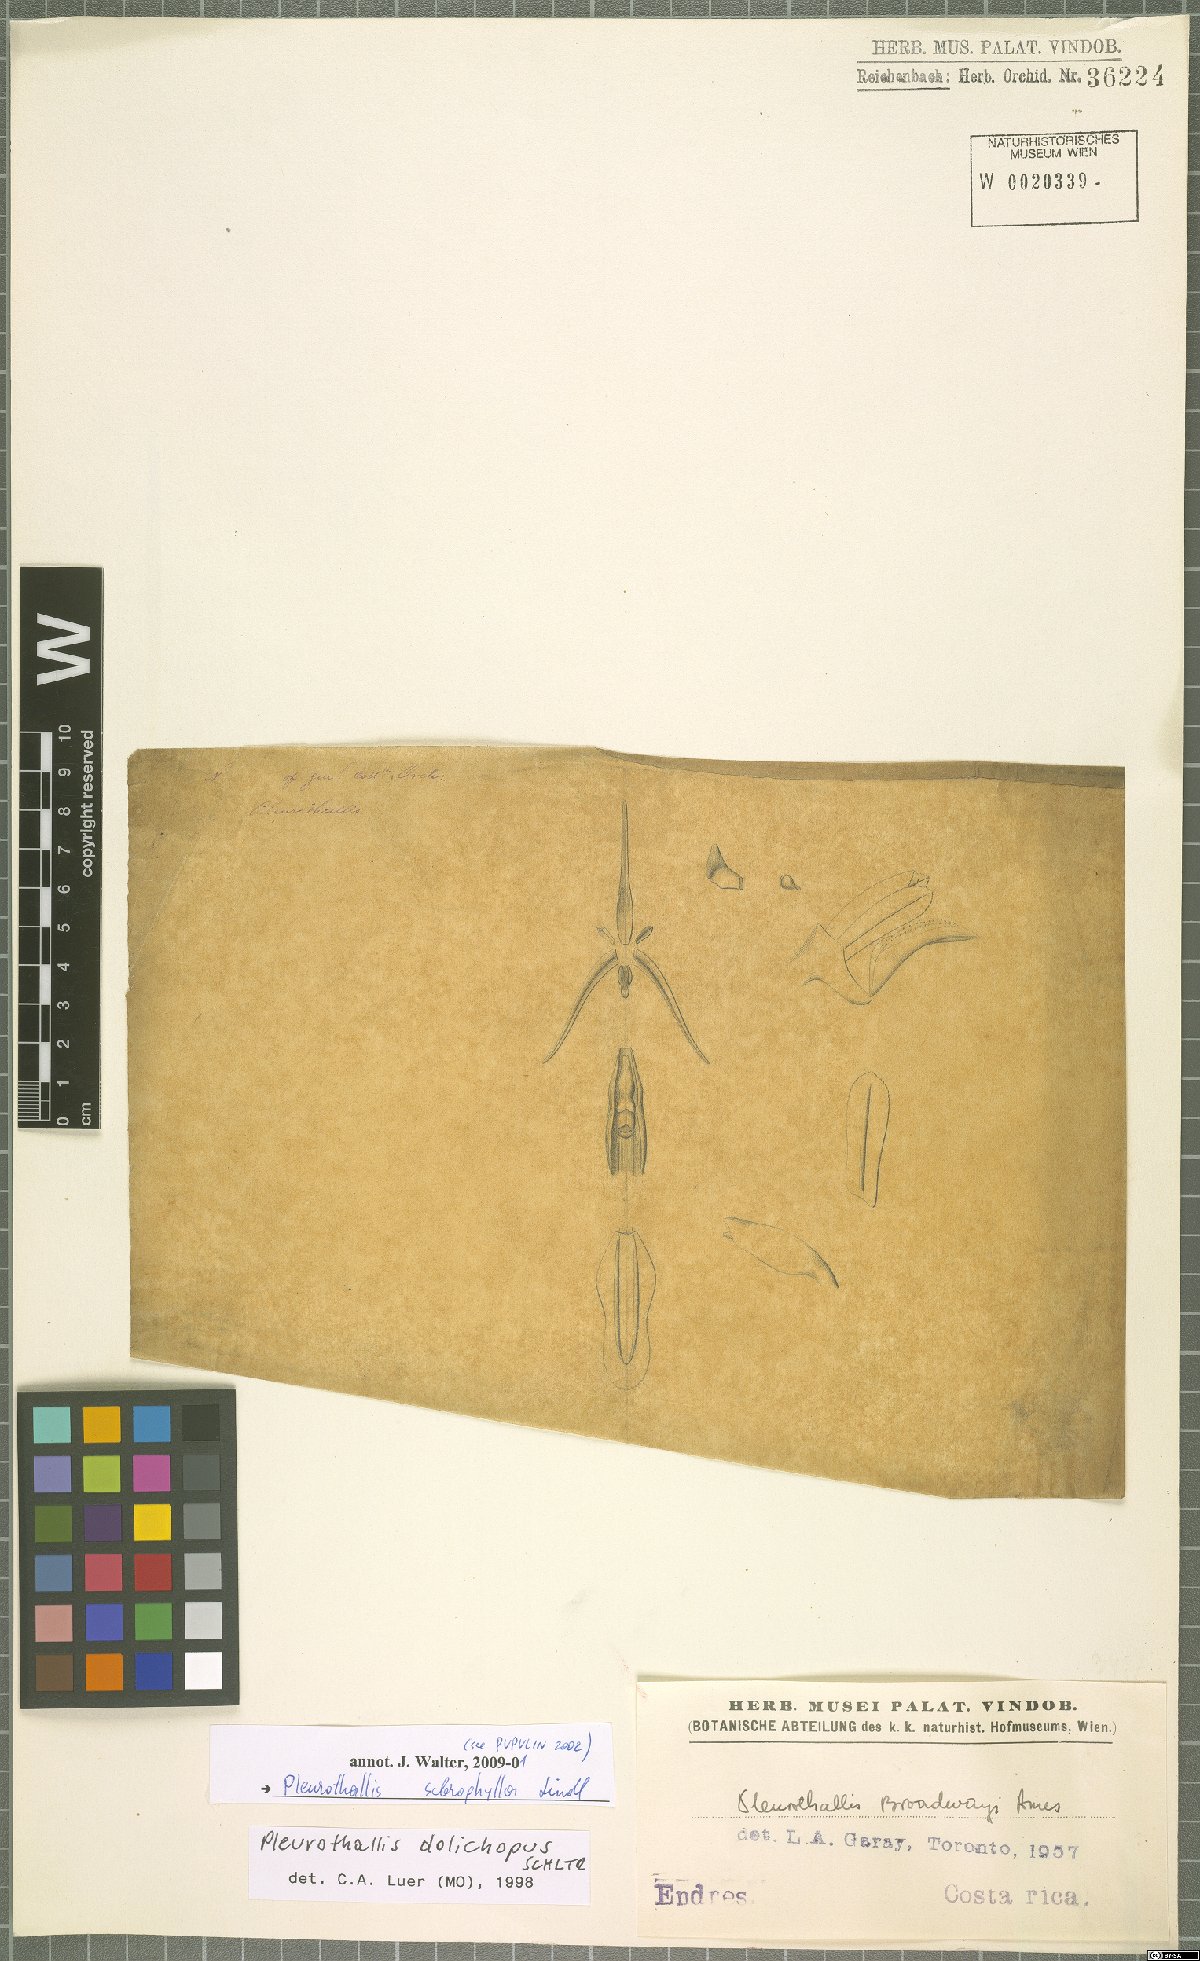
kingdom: Plantae
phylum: Tracheophyta
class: Liliopsida
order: Asparagales
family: Orchidaceae
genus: Stelis
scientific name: Stelis sclerophylla
